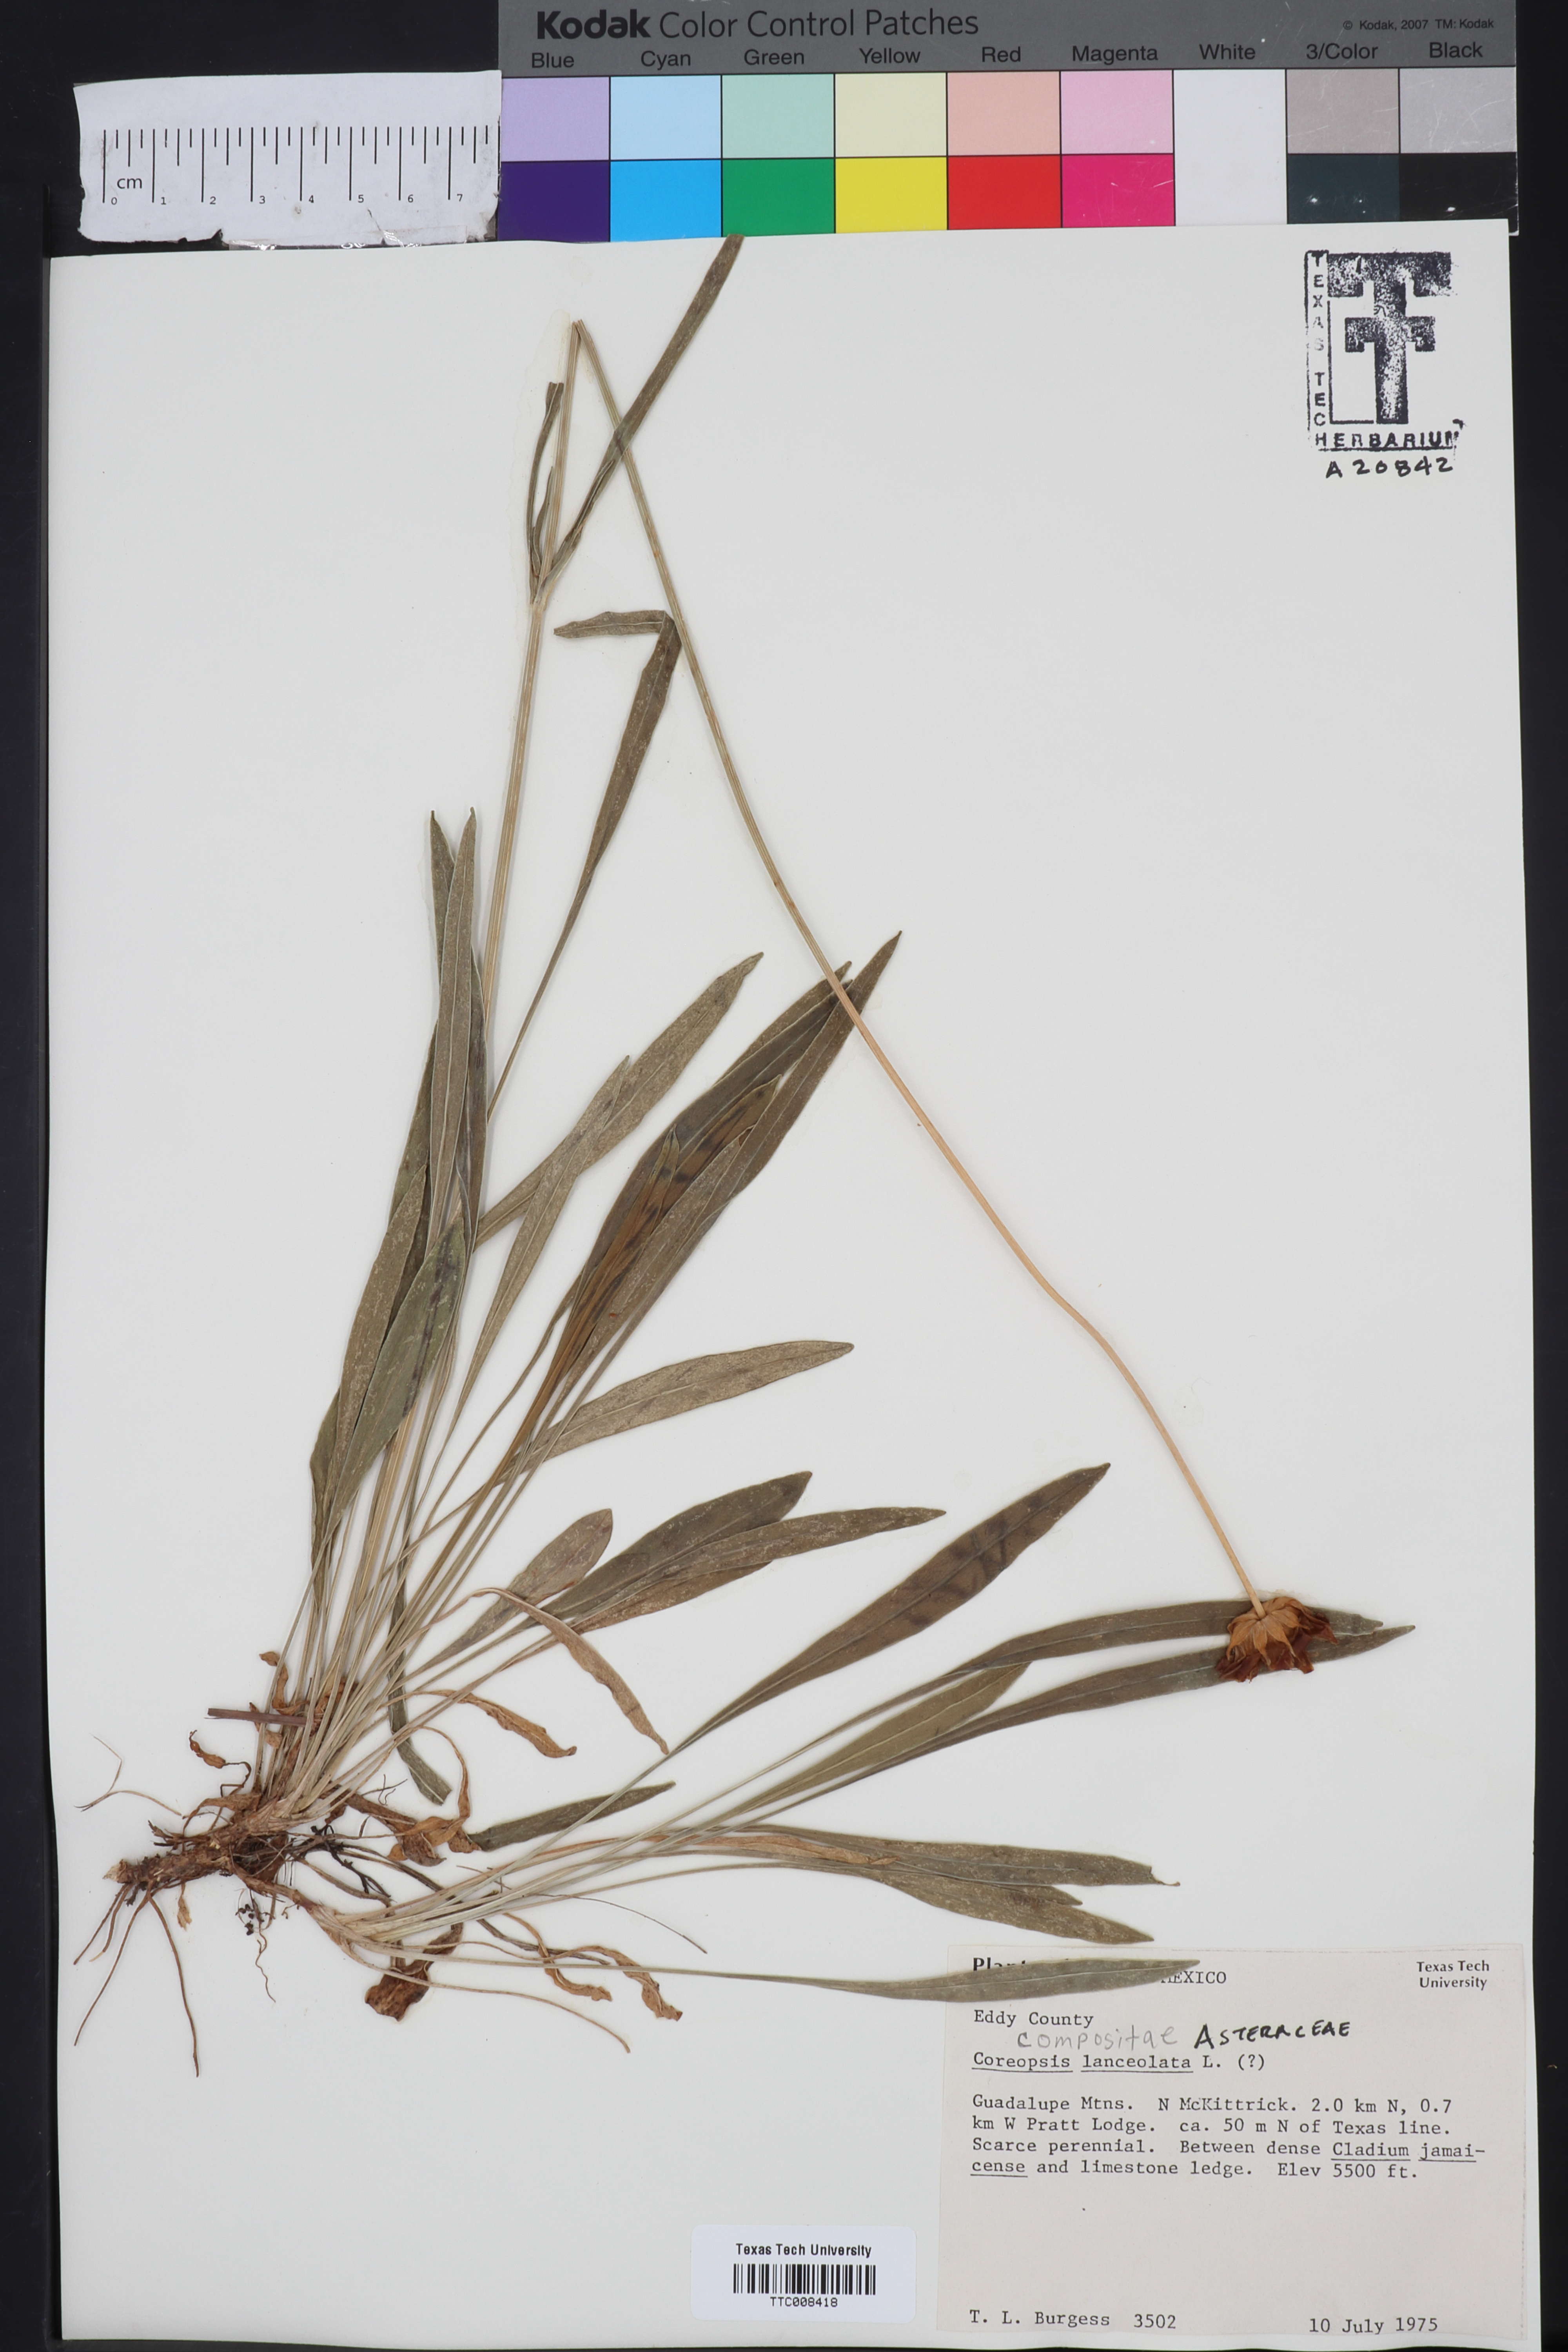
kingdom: Plantae
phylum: Tracheophyta
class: Magnoliopsida
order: Asterales
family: Asteraceae
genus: Coreopsis
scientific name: Coreopsis lanceolata
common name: Garden coreopsis
